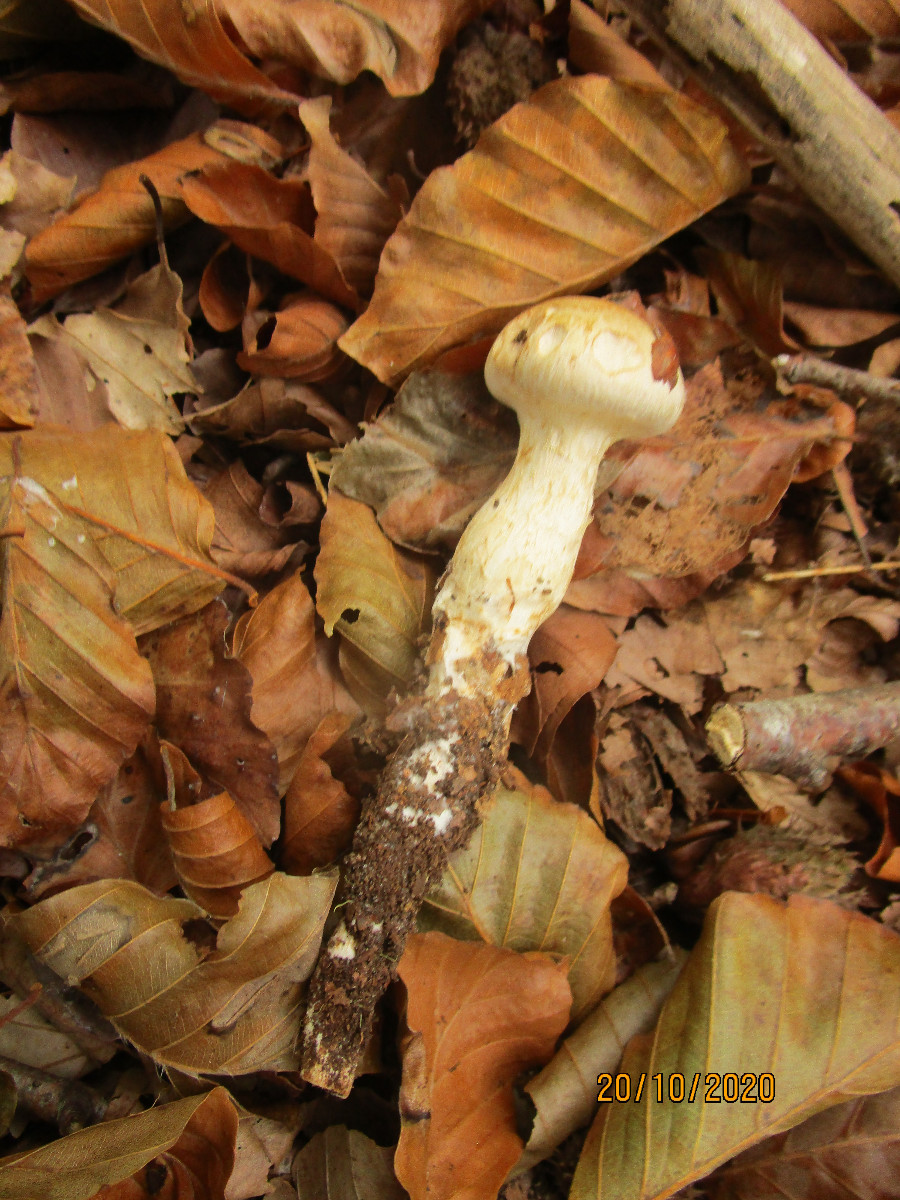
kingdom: Fungi
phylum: Basidiomycota
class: Agaricomycetes
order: Agaricales
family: Hymenogastraceae
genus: Hebeloma
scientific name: Hebeloma radicosum
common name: pælerods-tåreblad
